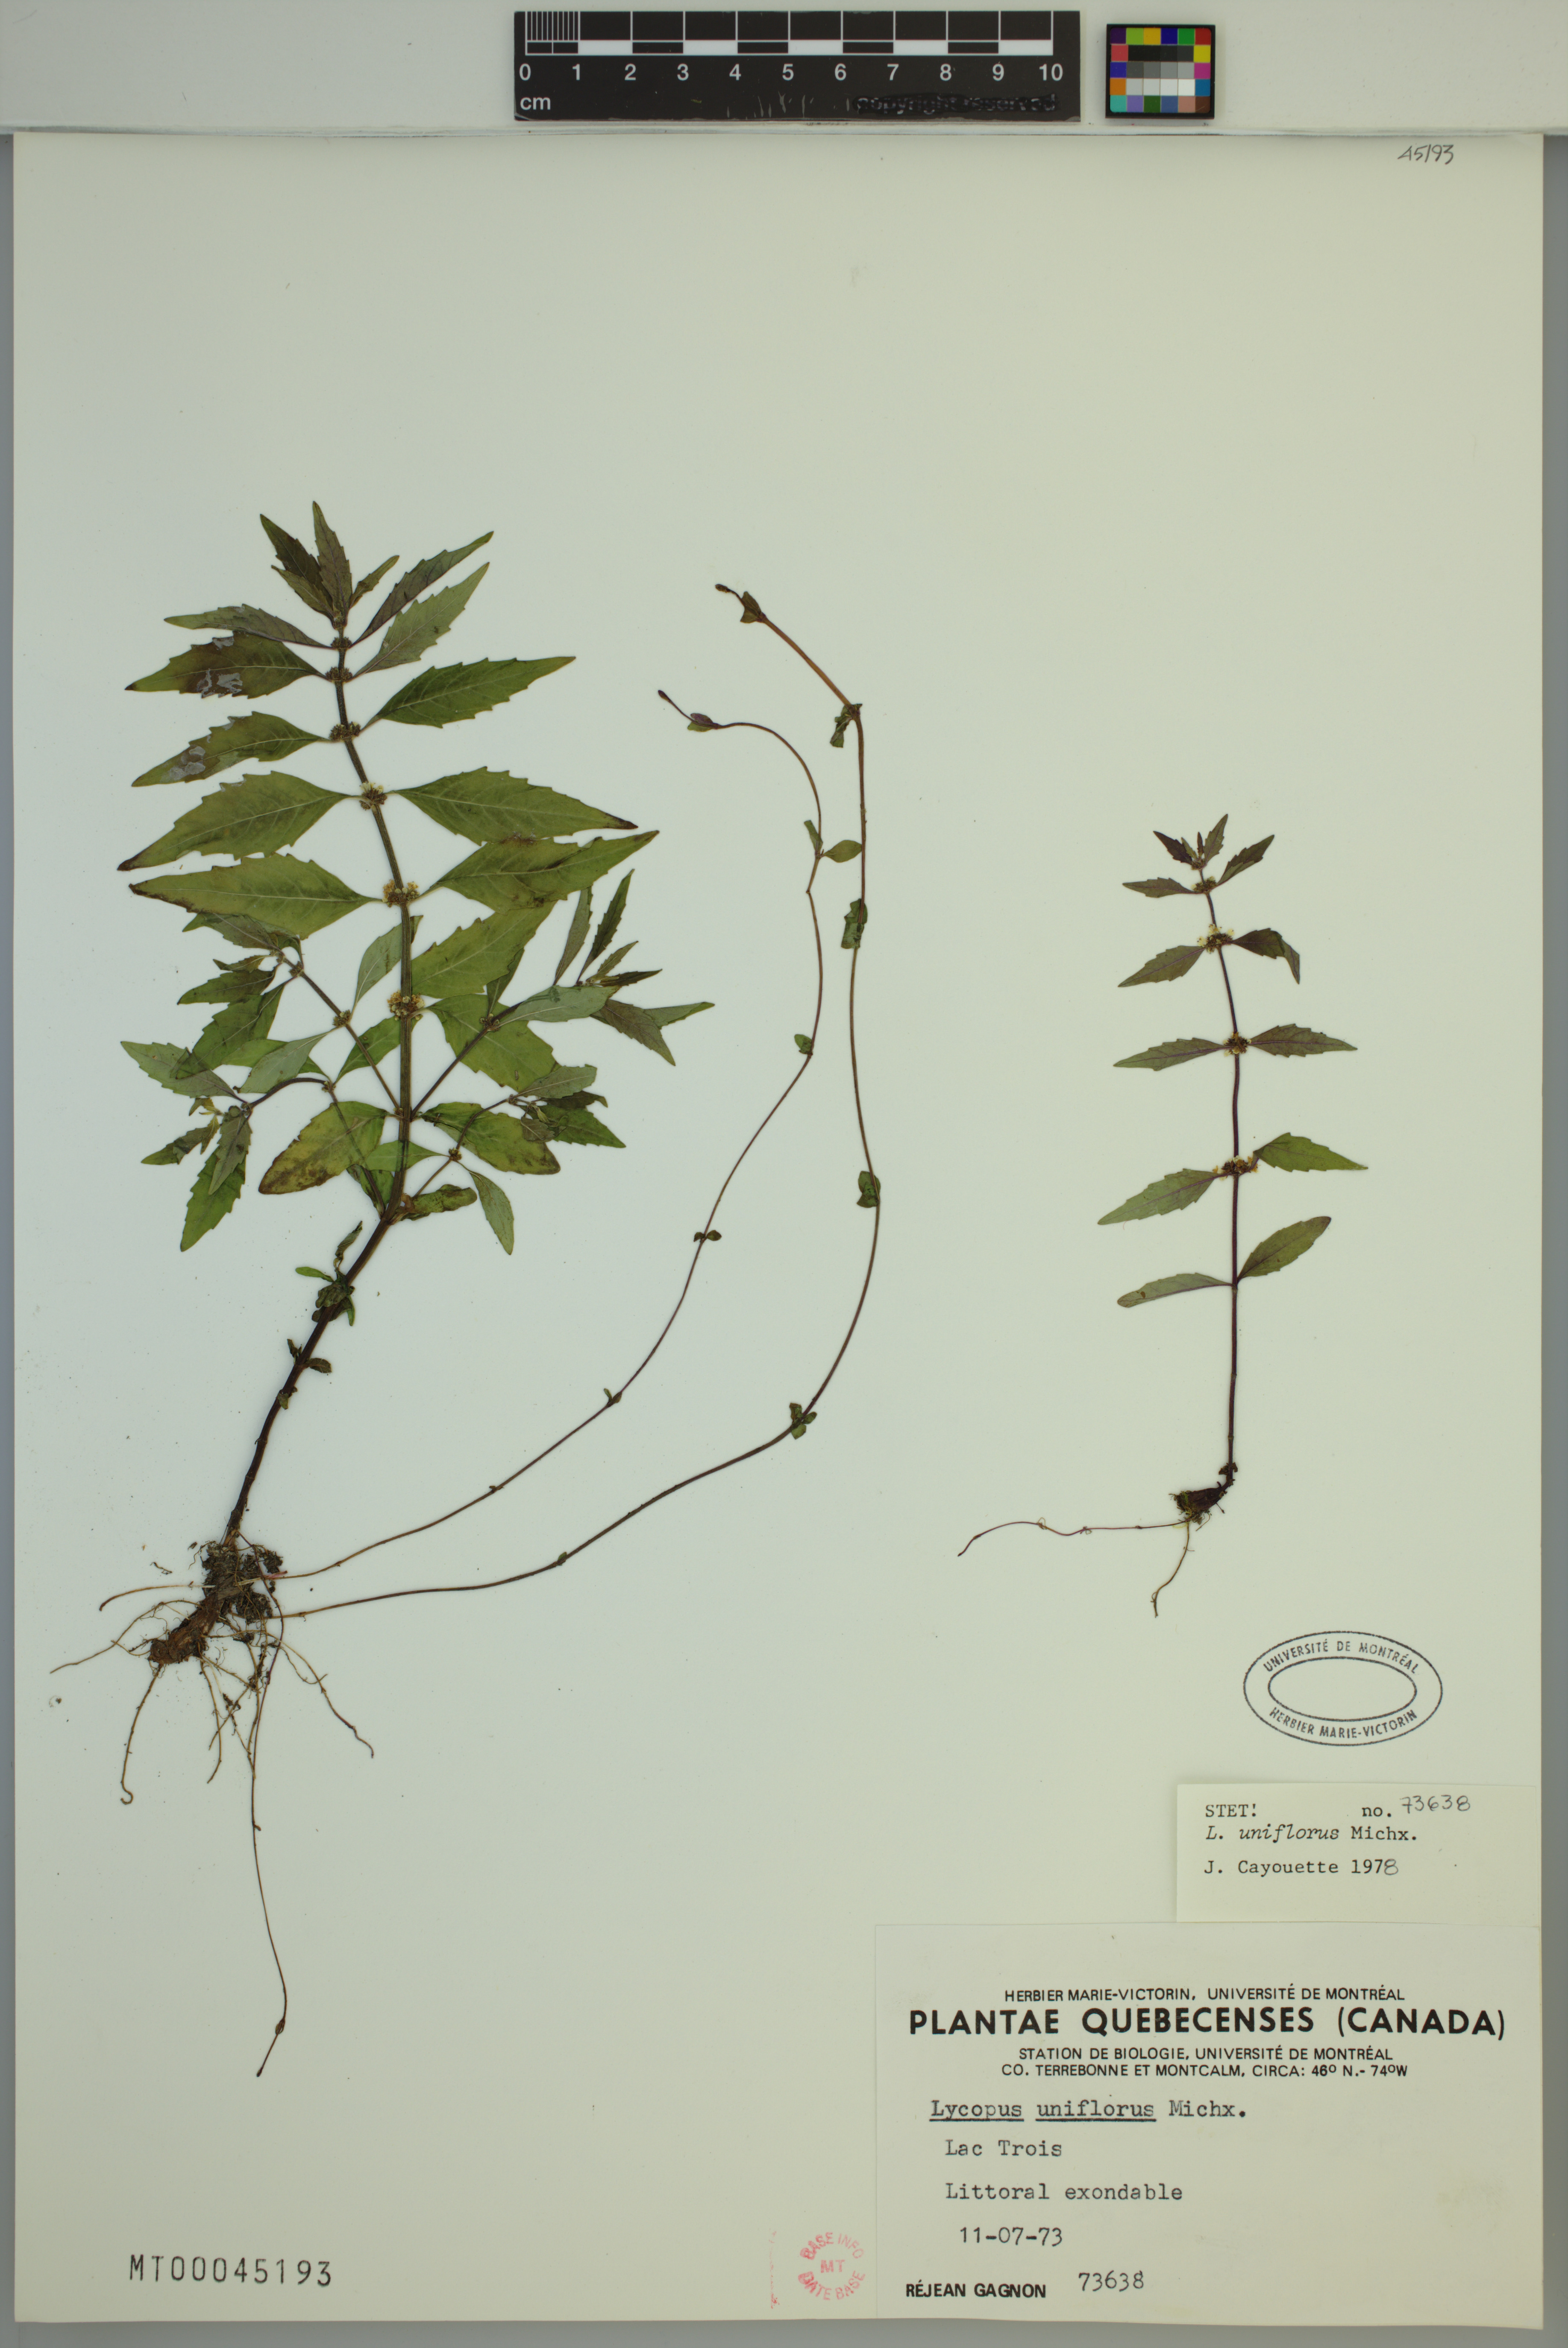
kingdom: Plantae
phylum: Tracheophyta
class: Magnoliopsida
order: Lamiales
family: Lamiaceae
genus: Lycopus
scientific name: Lycopus uniflorus
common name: Northern bugleweed
